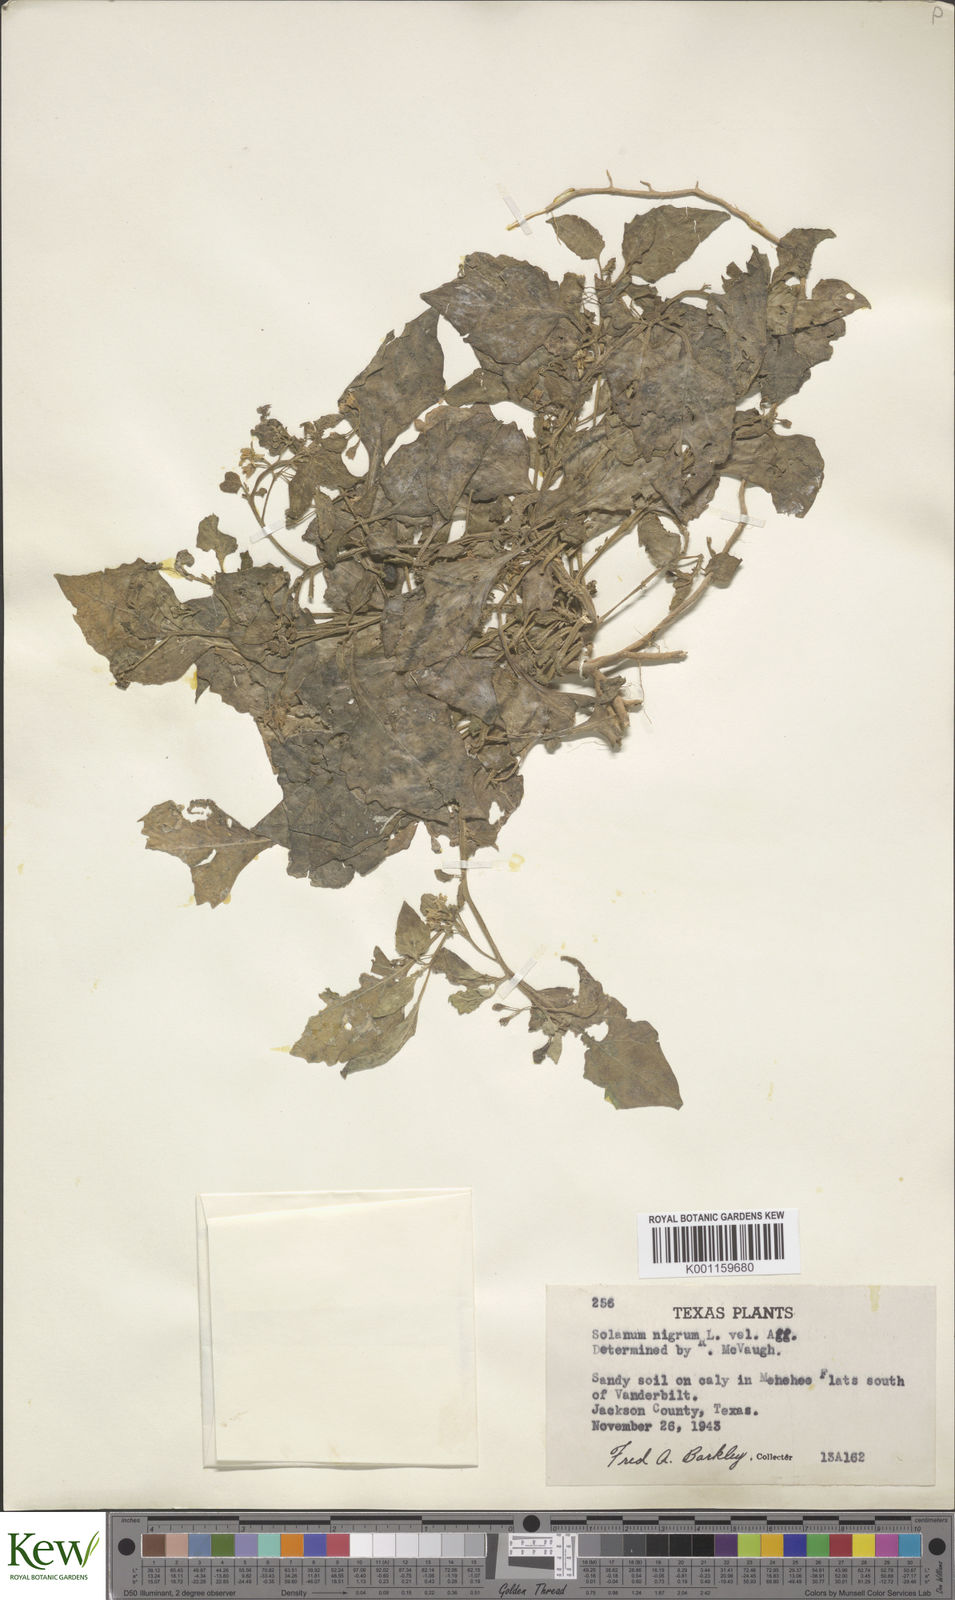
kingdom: Plantae
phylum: Tracheophyta
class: Magnoliopsida
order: Solanales
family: Solanaceae
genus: Solanum
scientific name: Solanum nigrescens
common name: Divine nightshade
